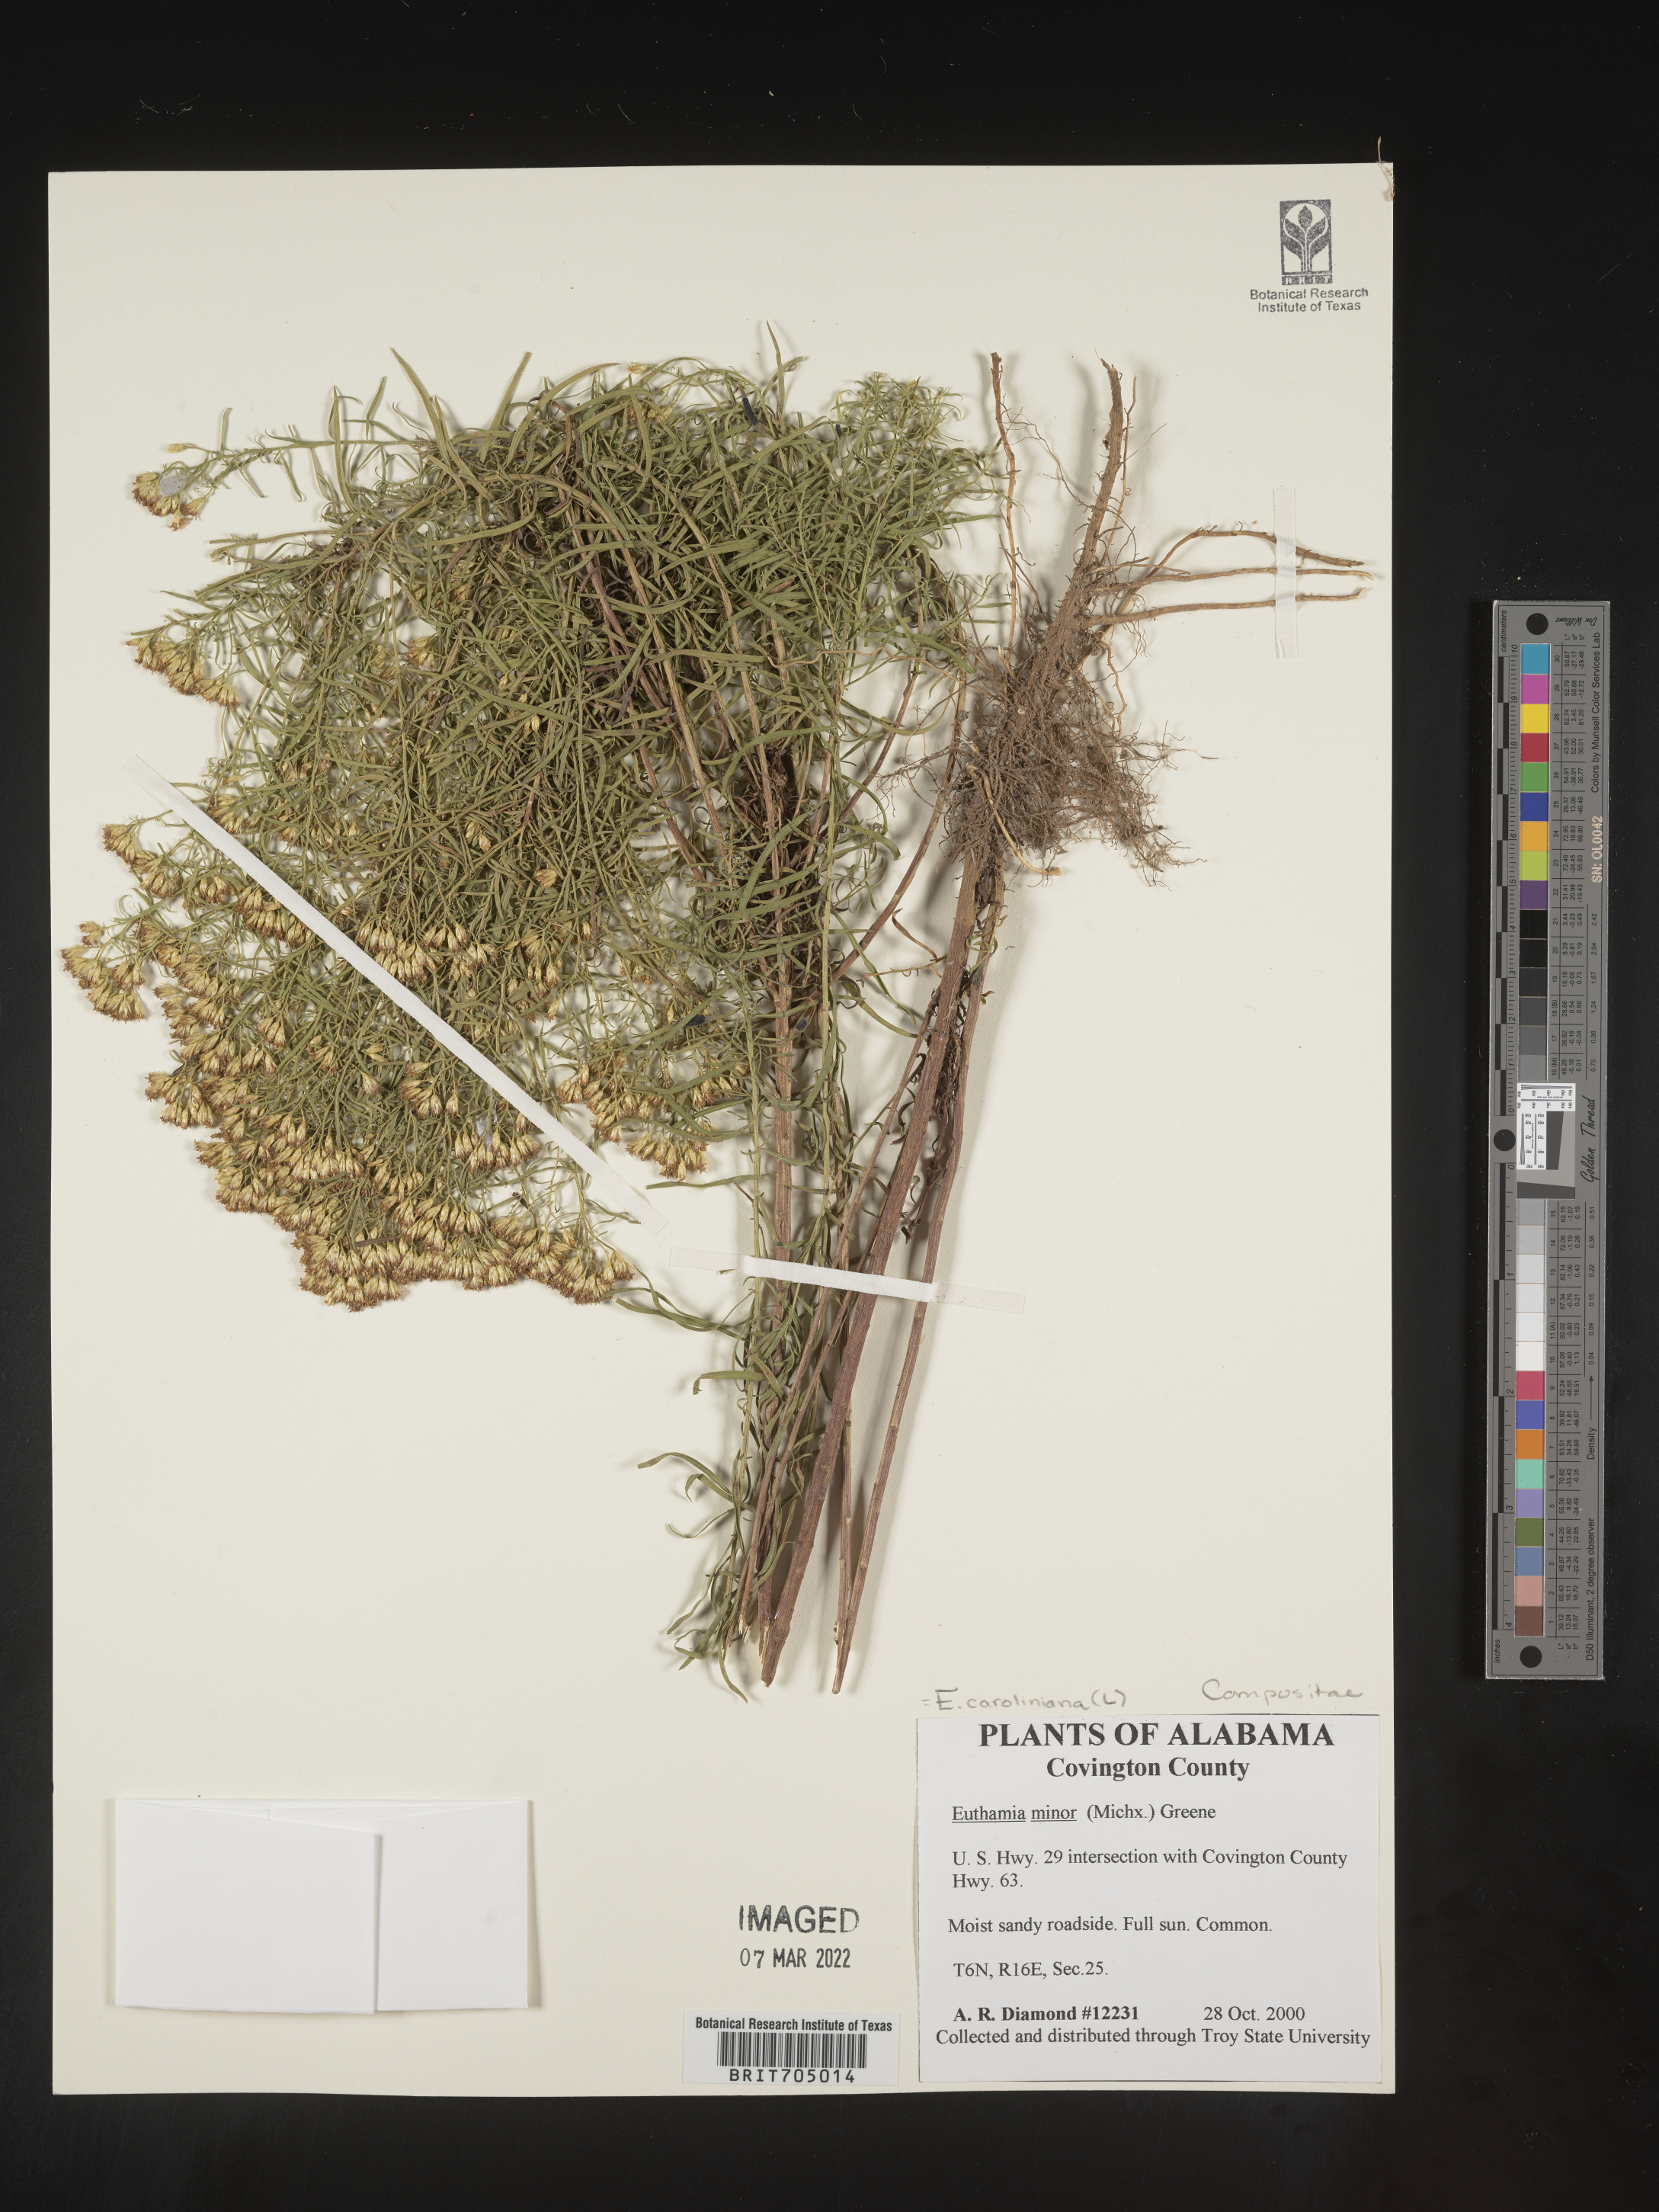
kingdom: Plantae
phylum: Tracheophyta
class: Magnoliopsida
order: Asterales
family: Asteraceae
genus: Euthamia
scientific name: Euthamia caroliniana
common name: Coastal plain goldentop
